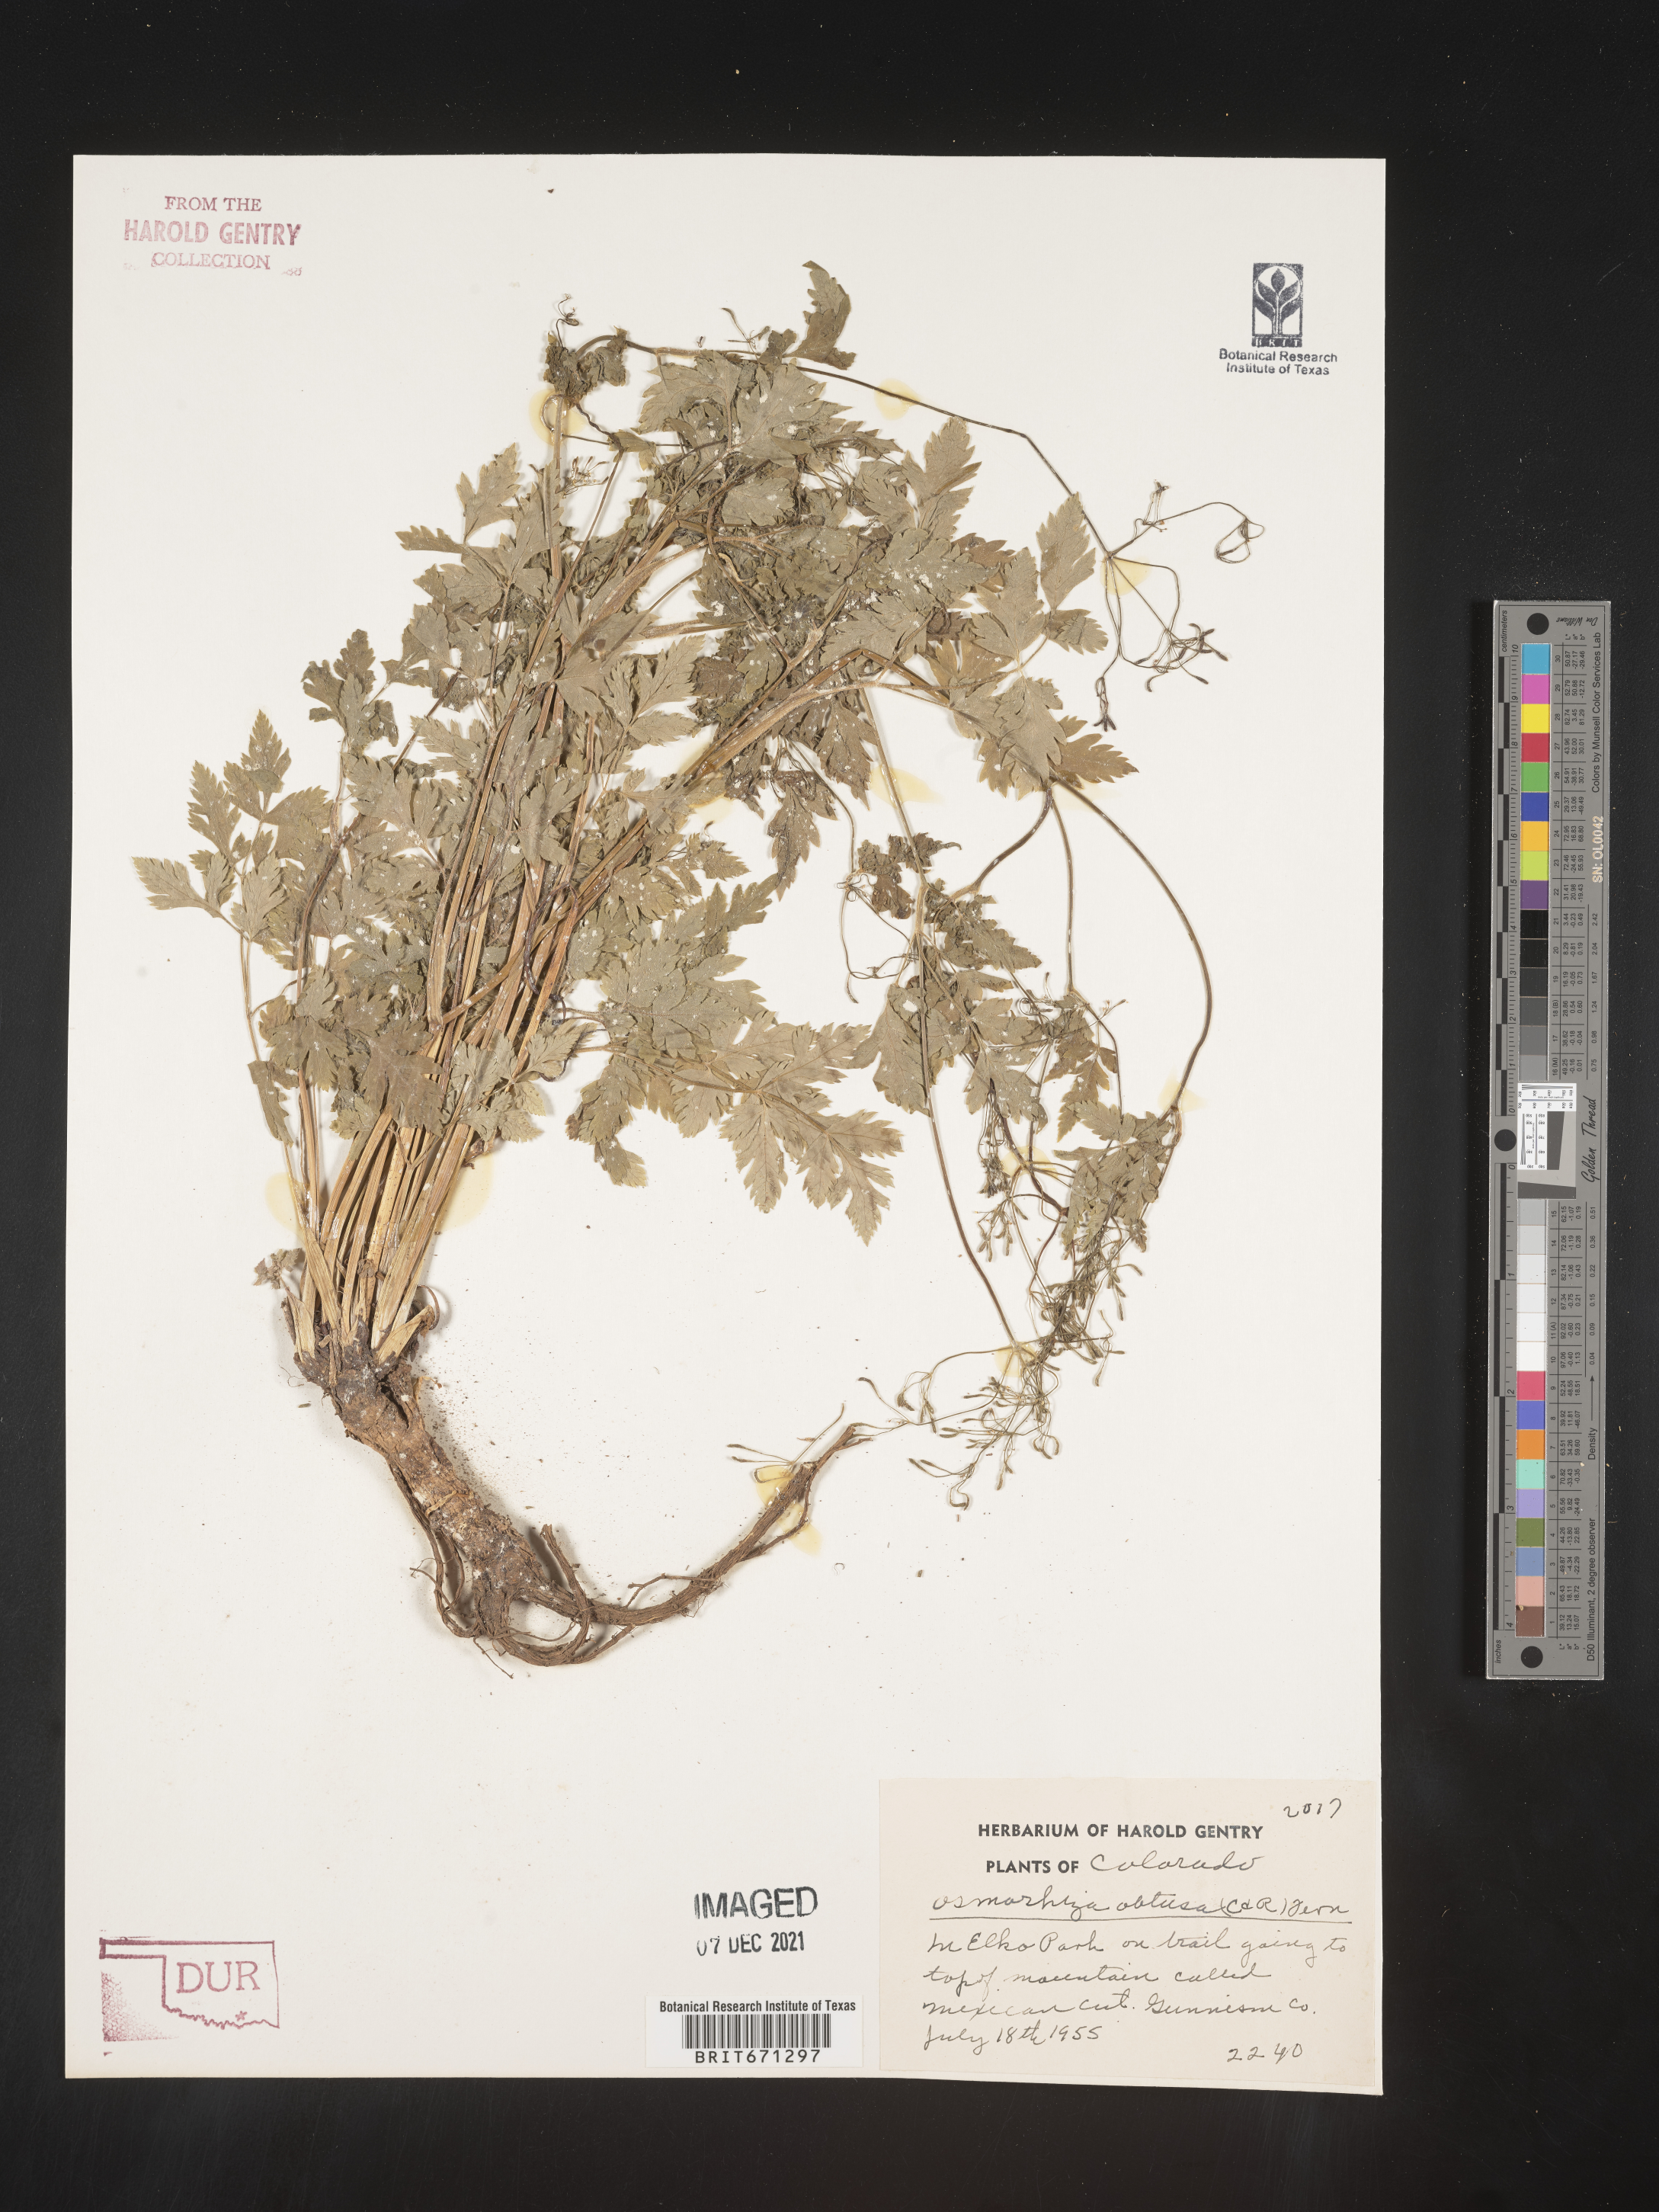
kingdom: Plantae
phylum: Tracheophyta
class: Magnoliopsida
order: Apiales
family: Apiaceae
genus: Osmorhiza
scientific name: Osmorhiza depauperata
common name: Blunt sweet cicely
